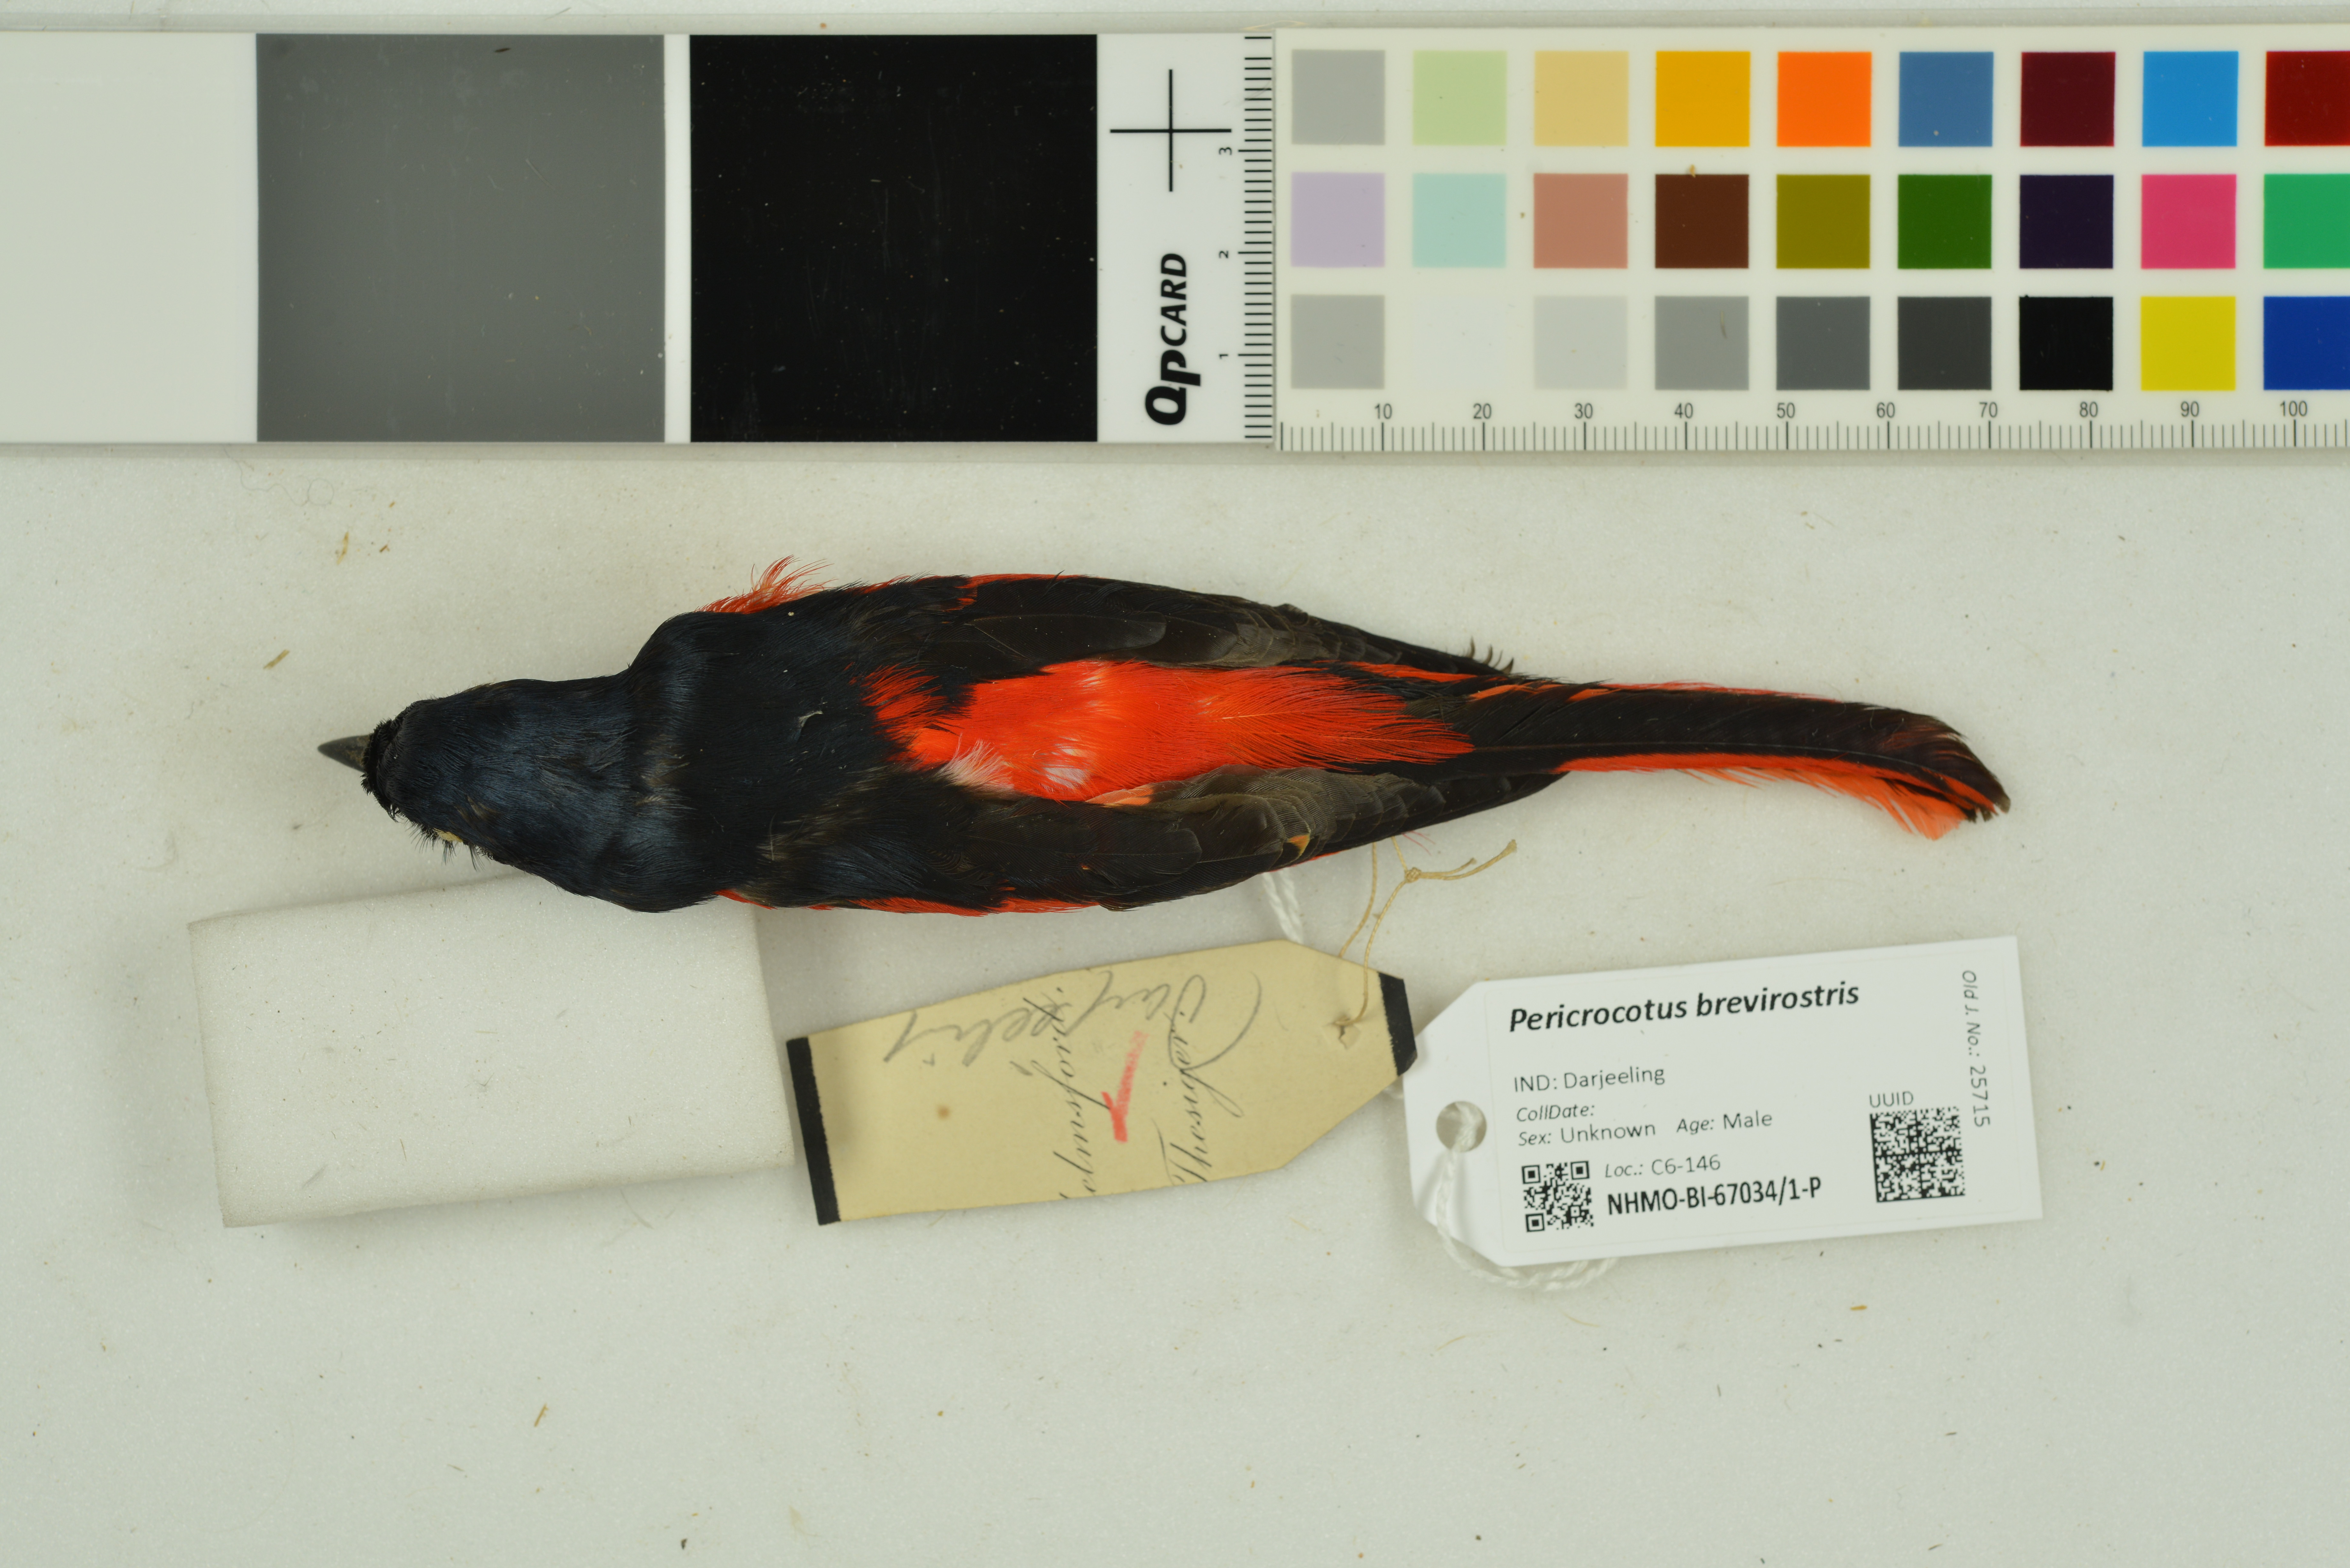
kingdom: Animalia
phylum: Chordata
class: Aves
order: Passeriformes
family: Campephagidae
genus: Pericrocotus
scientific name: Pericrocotus brevirostris
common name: Short-billed minivet
